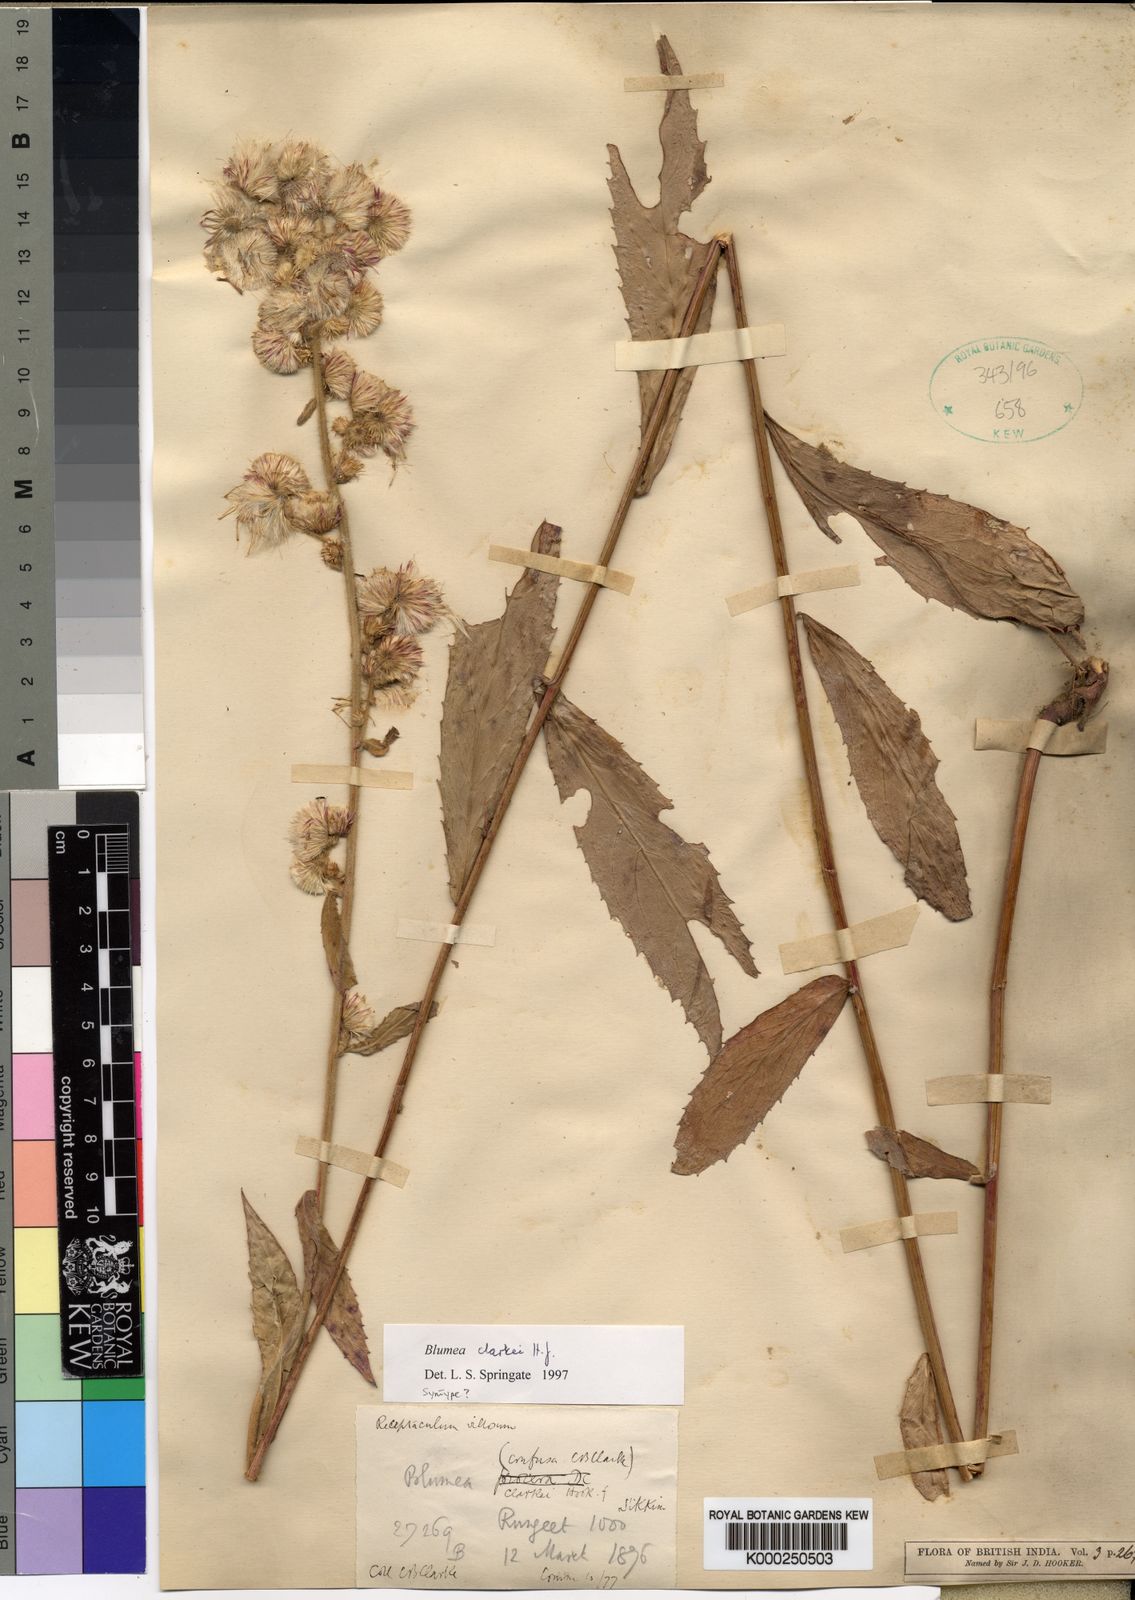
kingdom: Plantae
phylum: Tracheophyta
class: Magnoliopsida
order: Asterales
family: Asteraceae
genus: Blumea
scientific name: Blumea hirsuta
